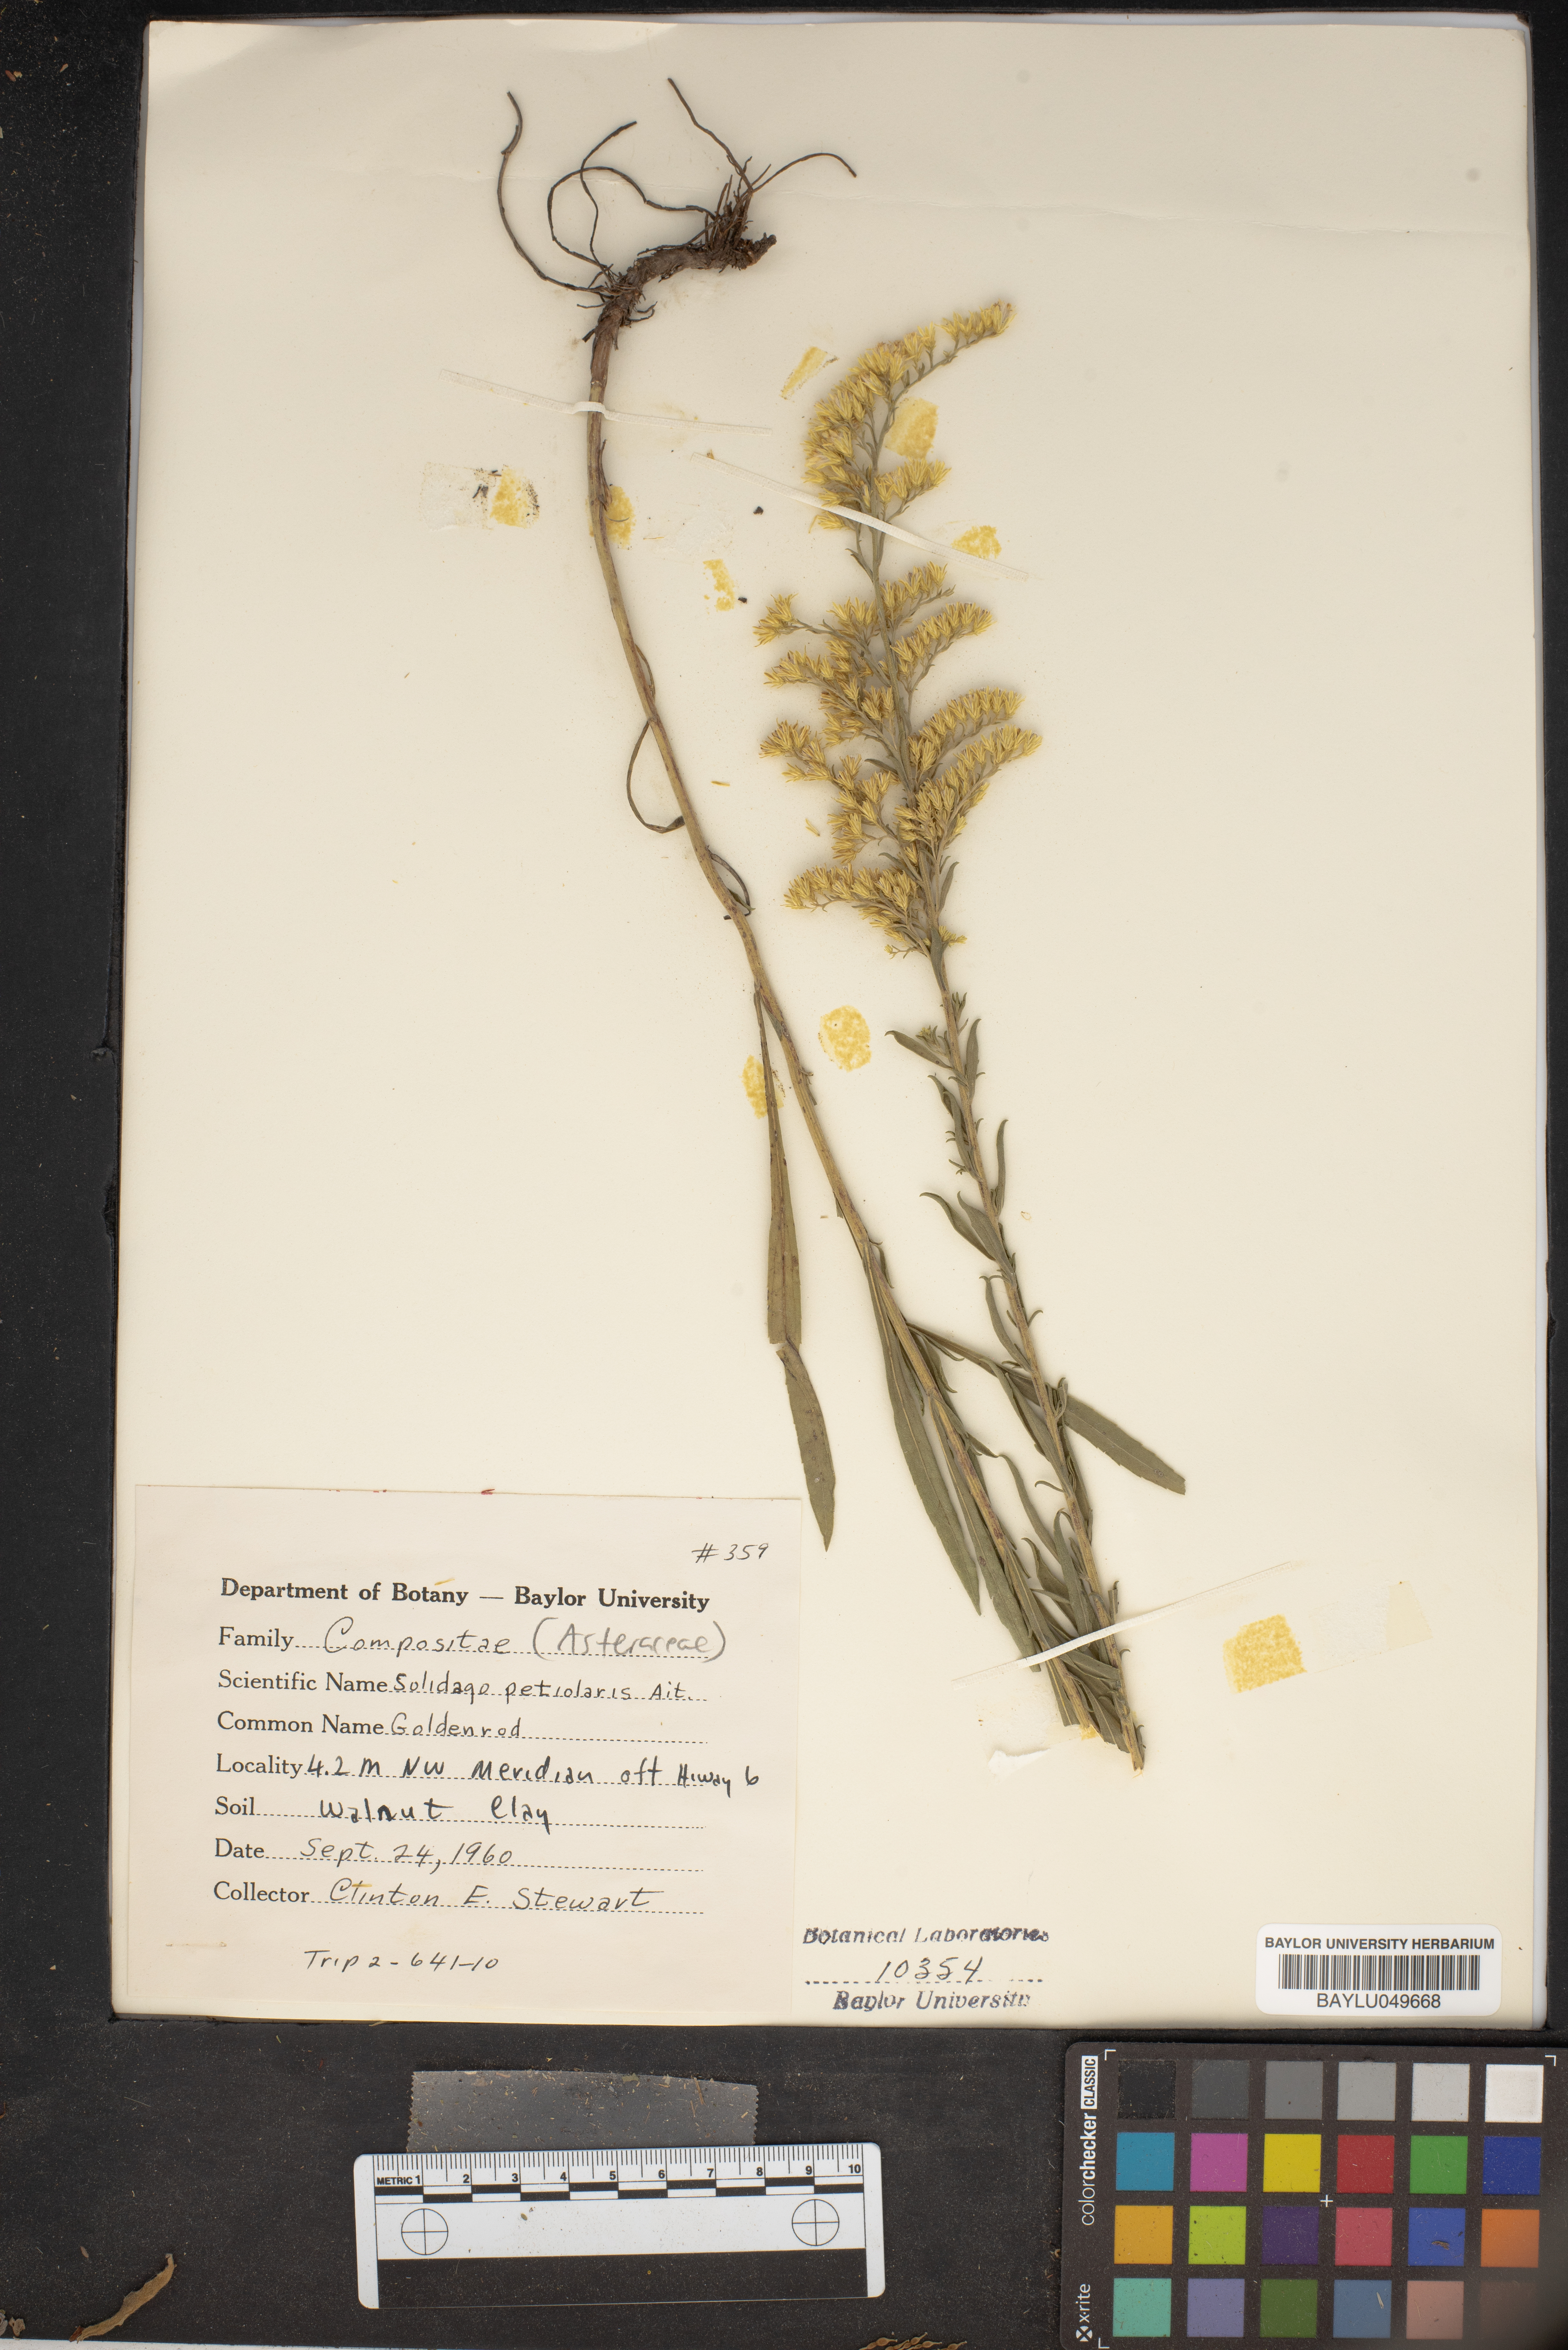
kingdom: Plantae
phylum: Tracheophyta
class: Magnoliopsida
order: Asterales
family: Asteraceae
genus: Solidago
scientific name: Solidago petiolaris
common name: Downy ragged goldenrod
